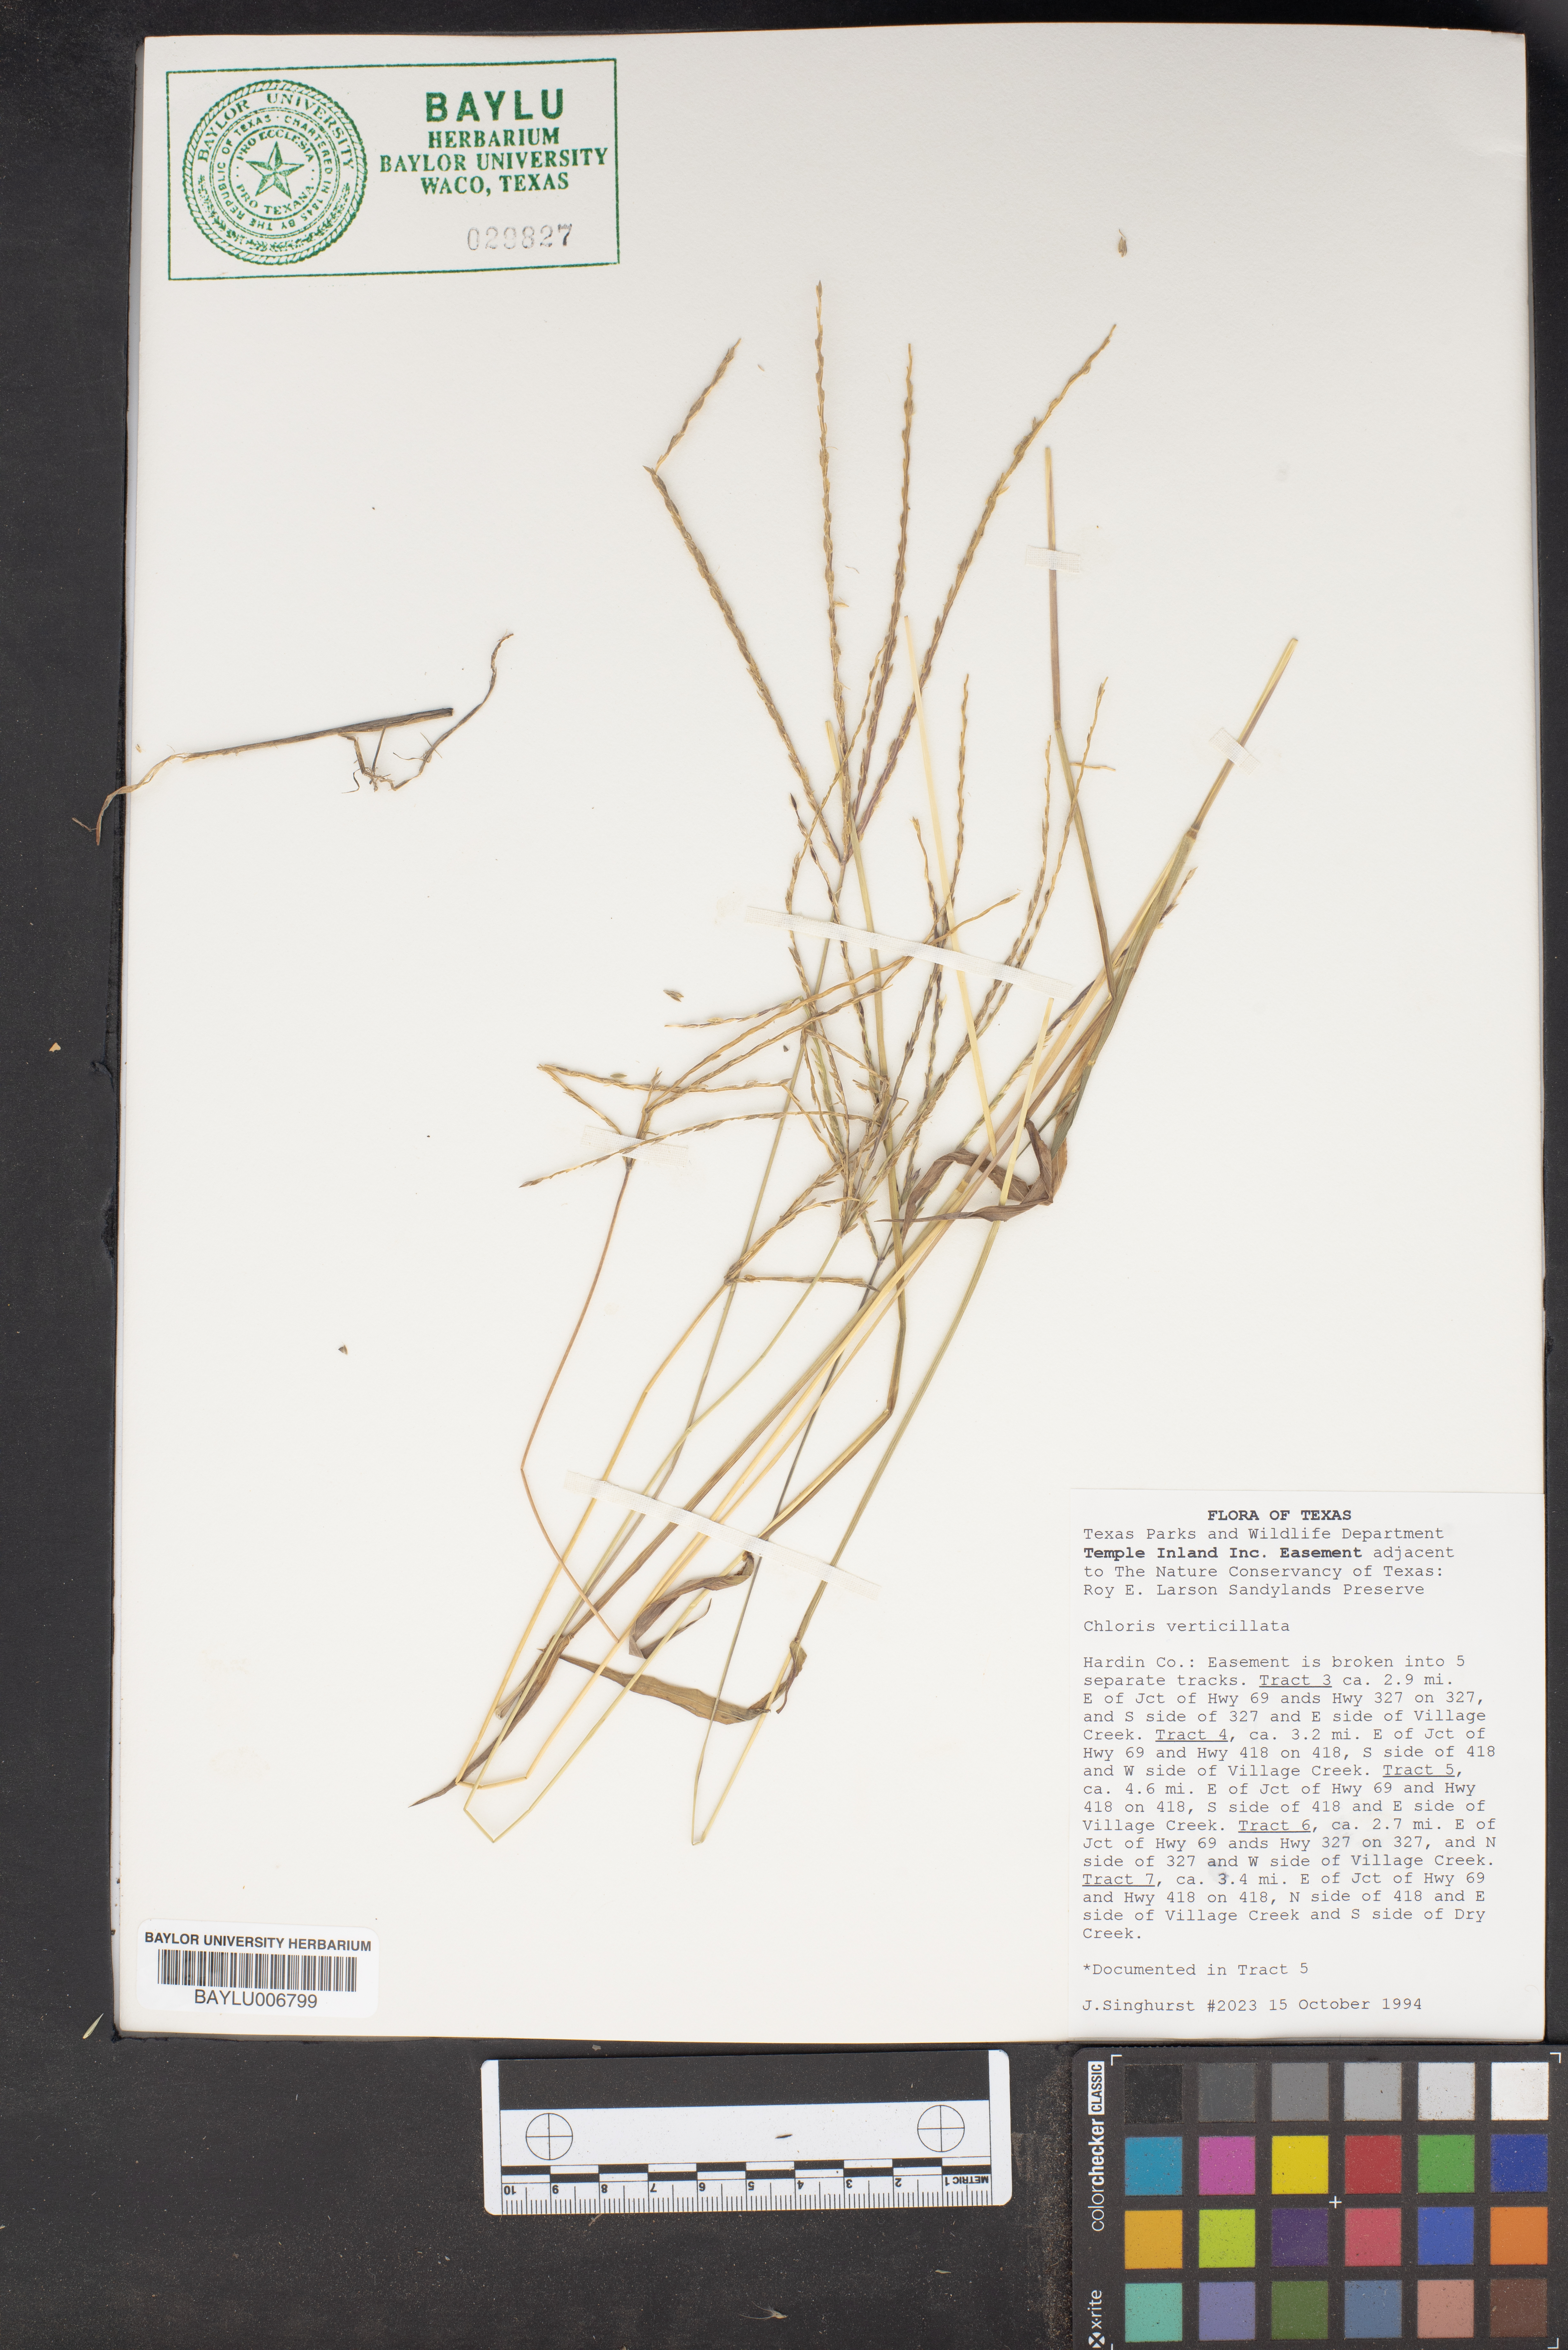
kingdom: Plantae
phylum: Tracheophyta
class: Liliopsida
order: Poales
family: Poaceae
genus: Chloris
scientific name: Chloris verticillata
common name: Tumble windmill grass
